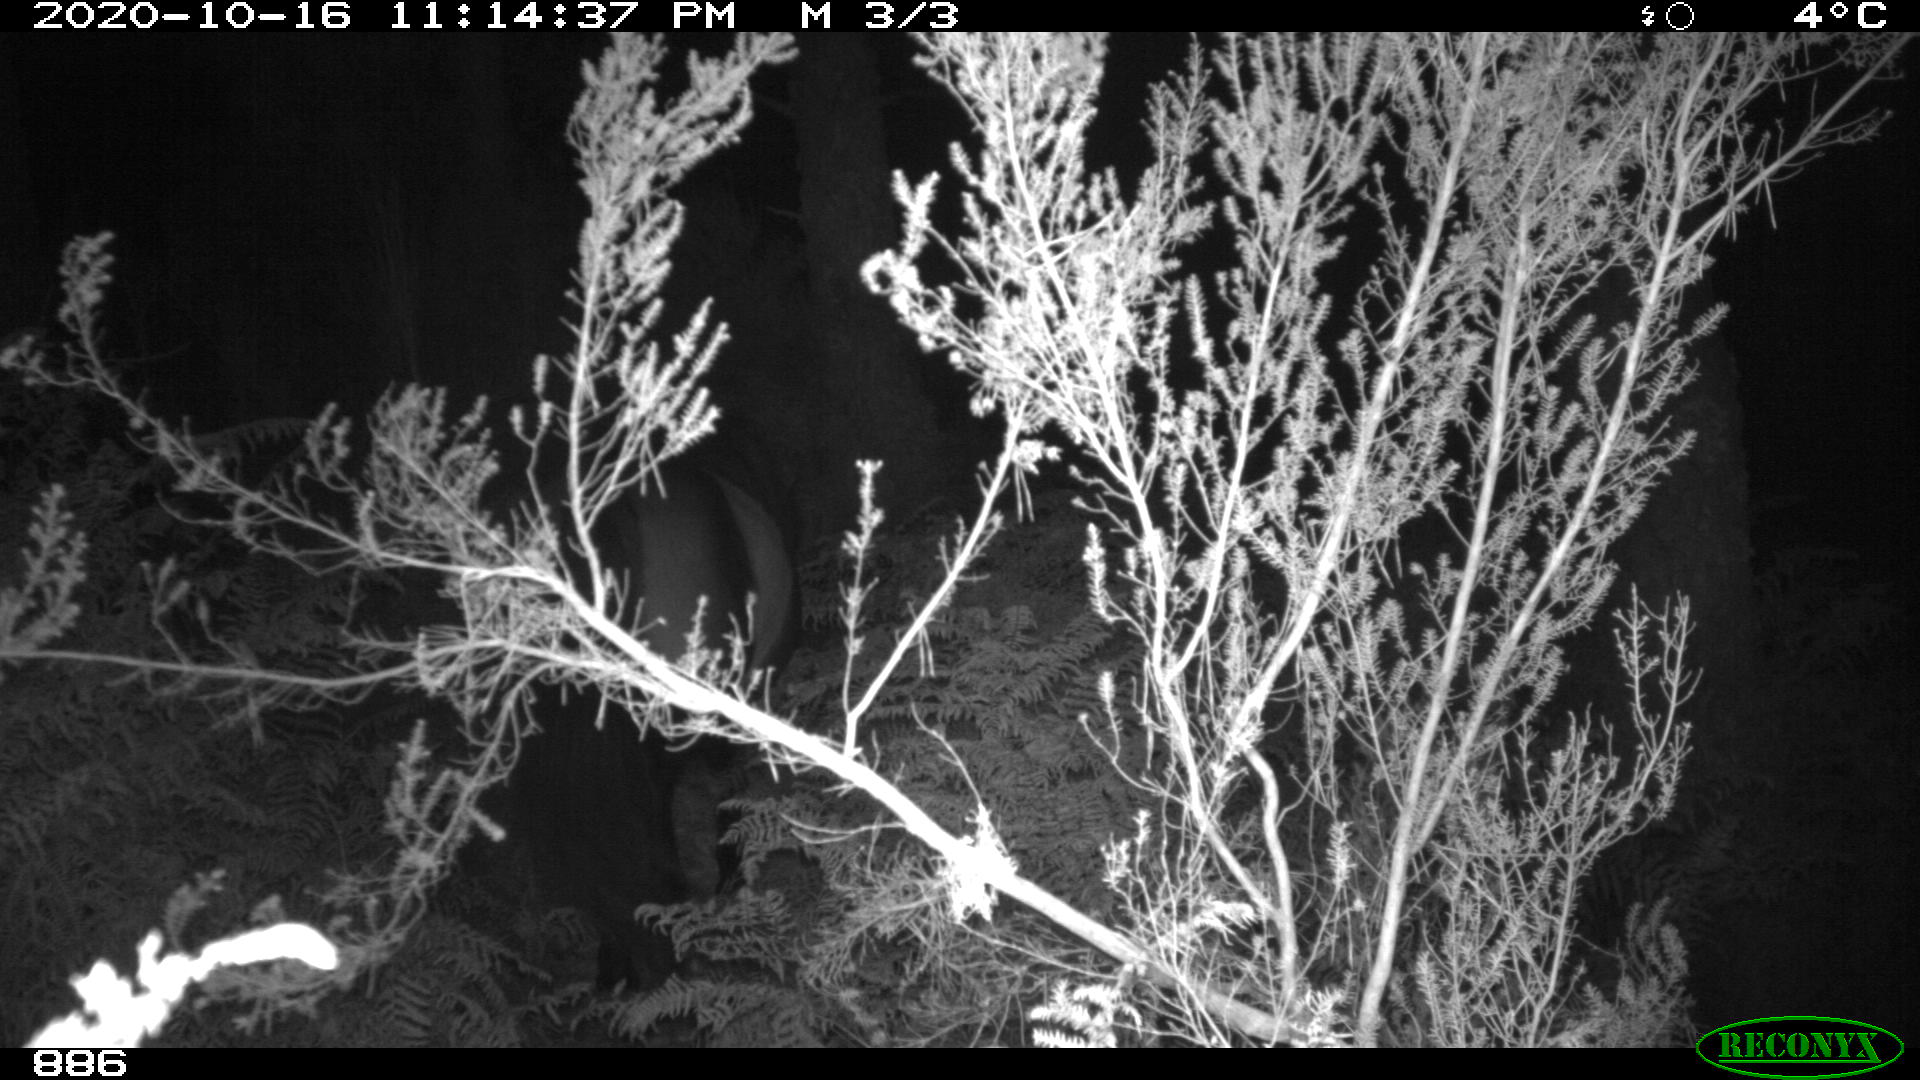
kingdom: Animalia
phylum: Chordata
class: Mammalia
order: Perissodactyla
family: Equidae
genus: Equus
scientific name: Equus caballus
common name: Horse
